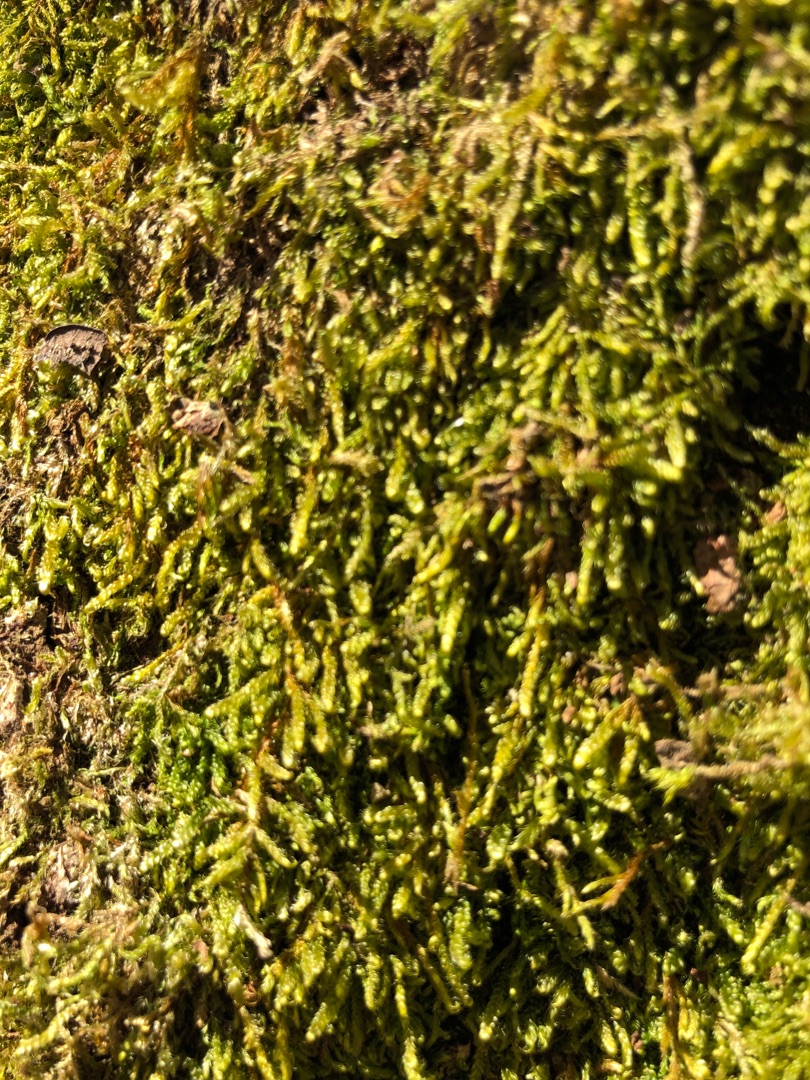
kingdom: Plantae
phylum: Bryophyta
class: Bryopsida
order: Hypnales
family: Hypnaceae
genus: Hypnum
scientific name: Hypnum
